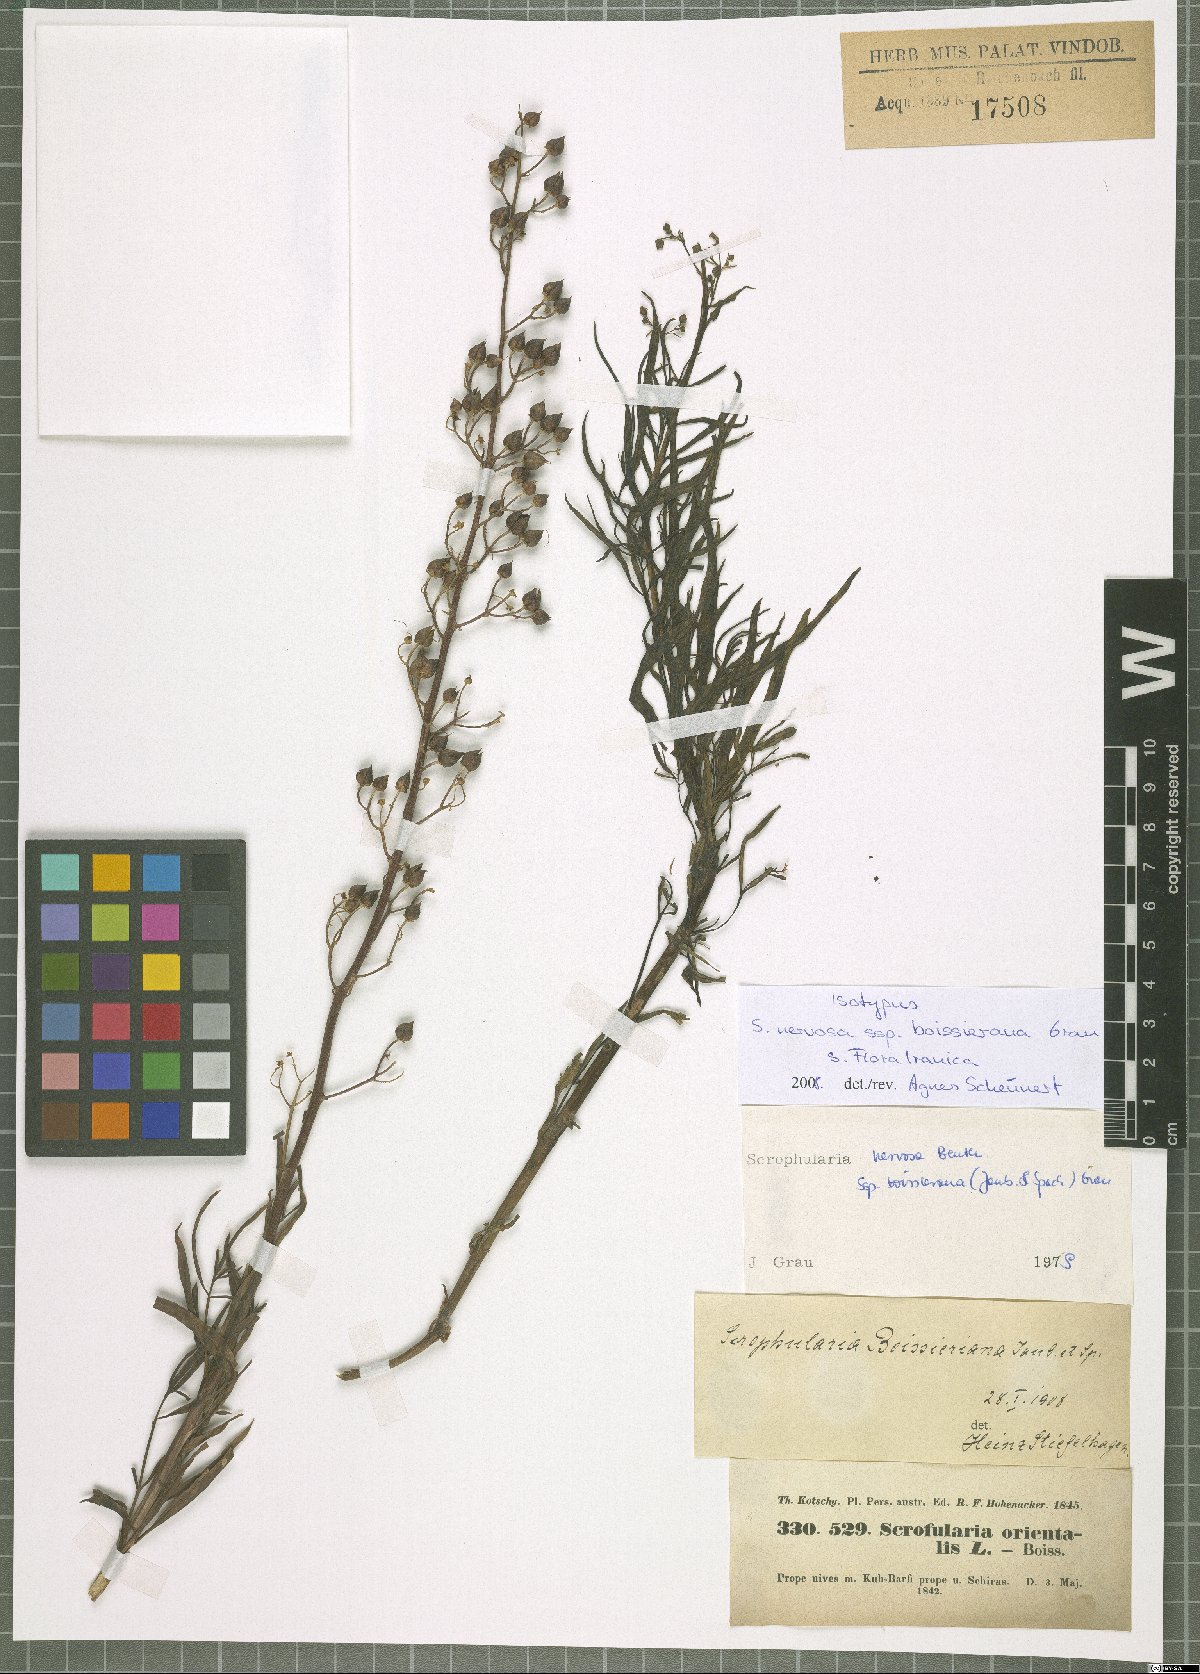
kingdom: Plantae
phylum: Tracheophyta
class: Magnoliopsida
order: Lamiales
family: Scrophulariaceae
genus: Scrophularia
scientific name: Scrophularia nervosa
